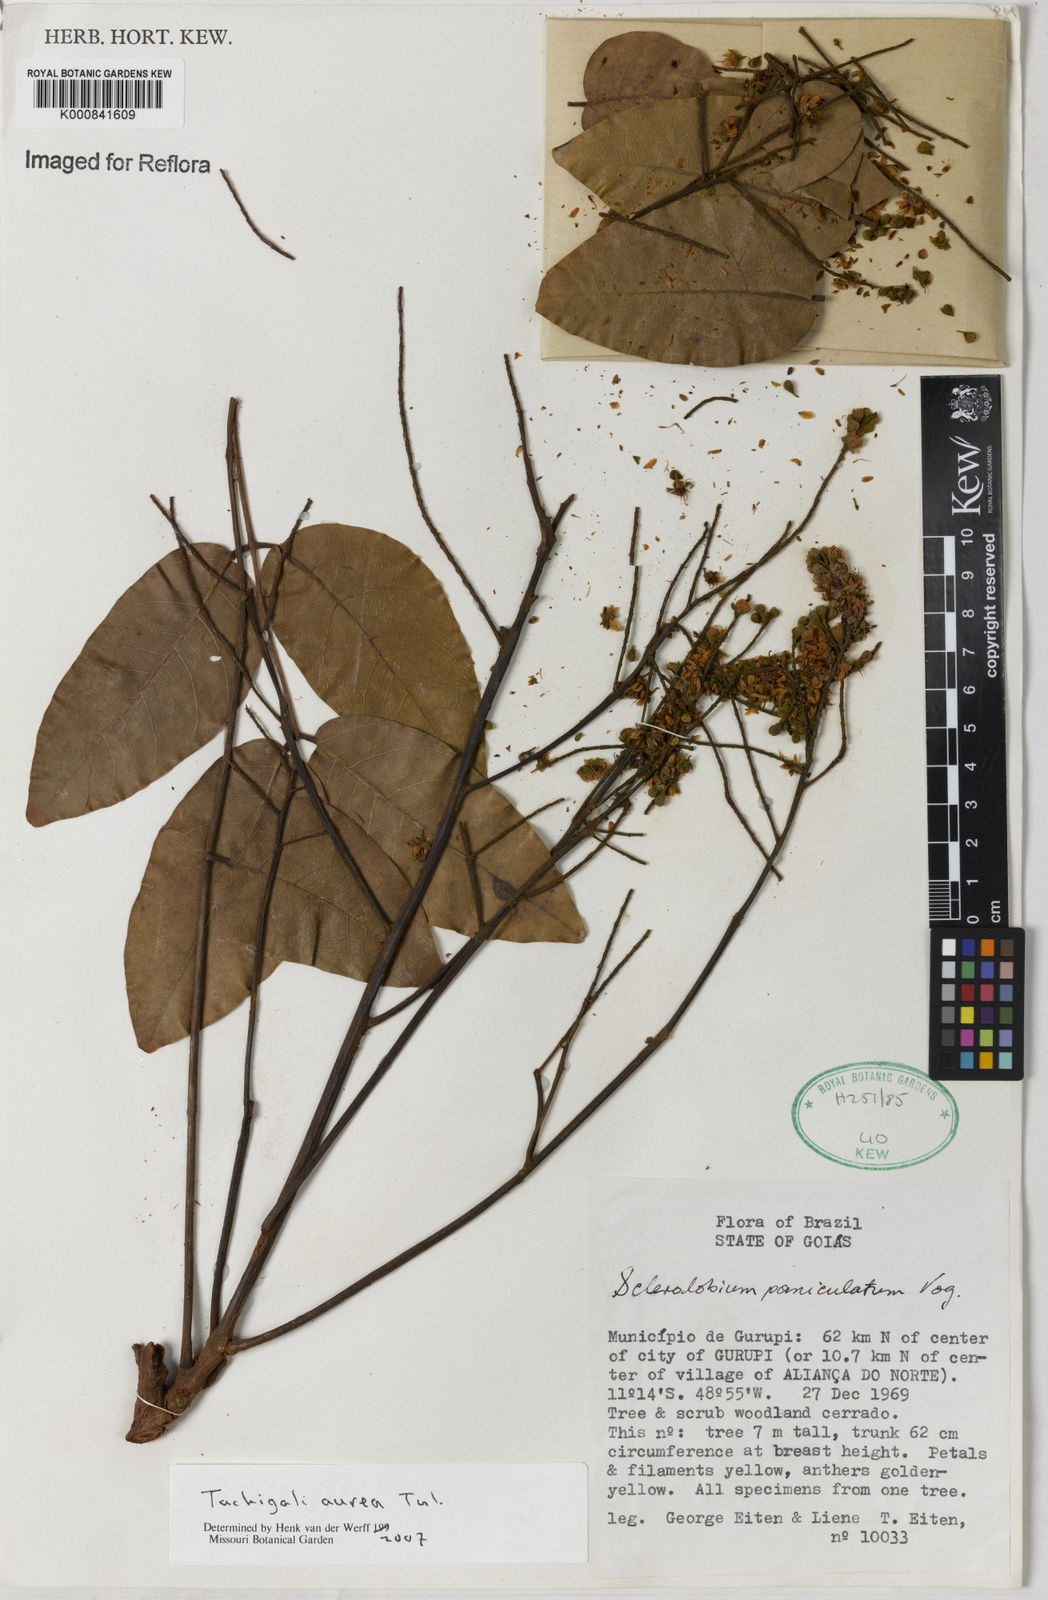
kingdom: Plantae
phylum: Tracheophyta
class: Magnoliopsida
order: Fabales
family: Fabaceae
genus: Tachigali
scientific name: Tachigali aurea
